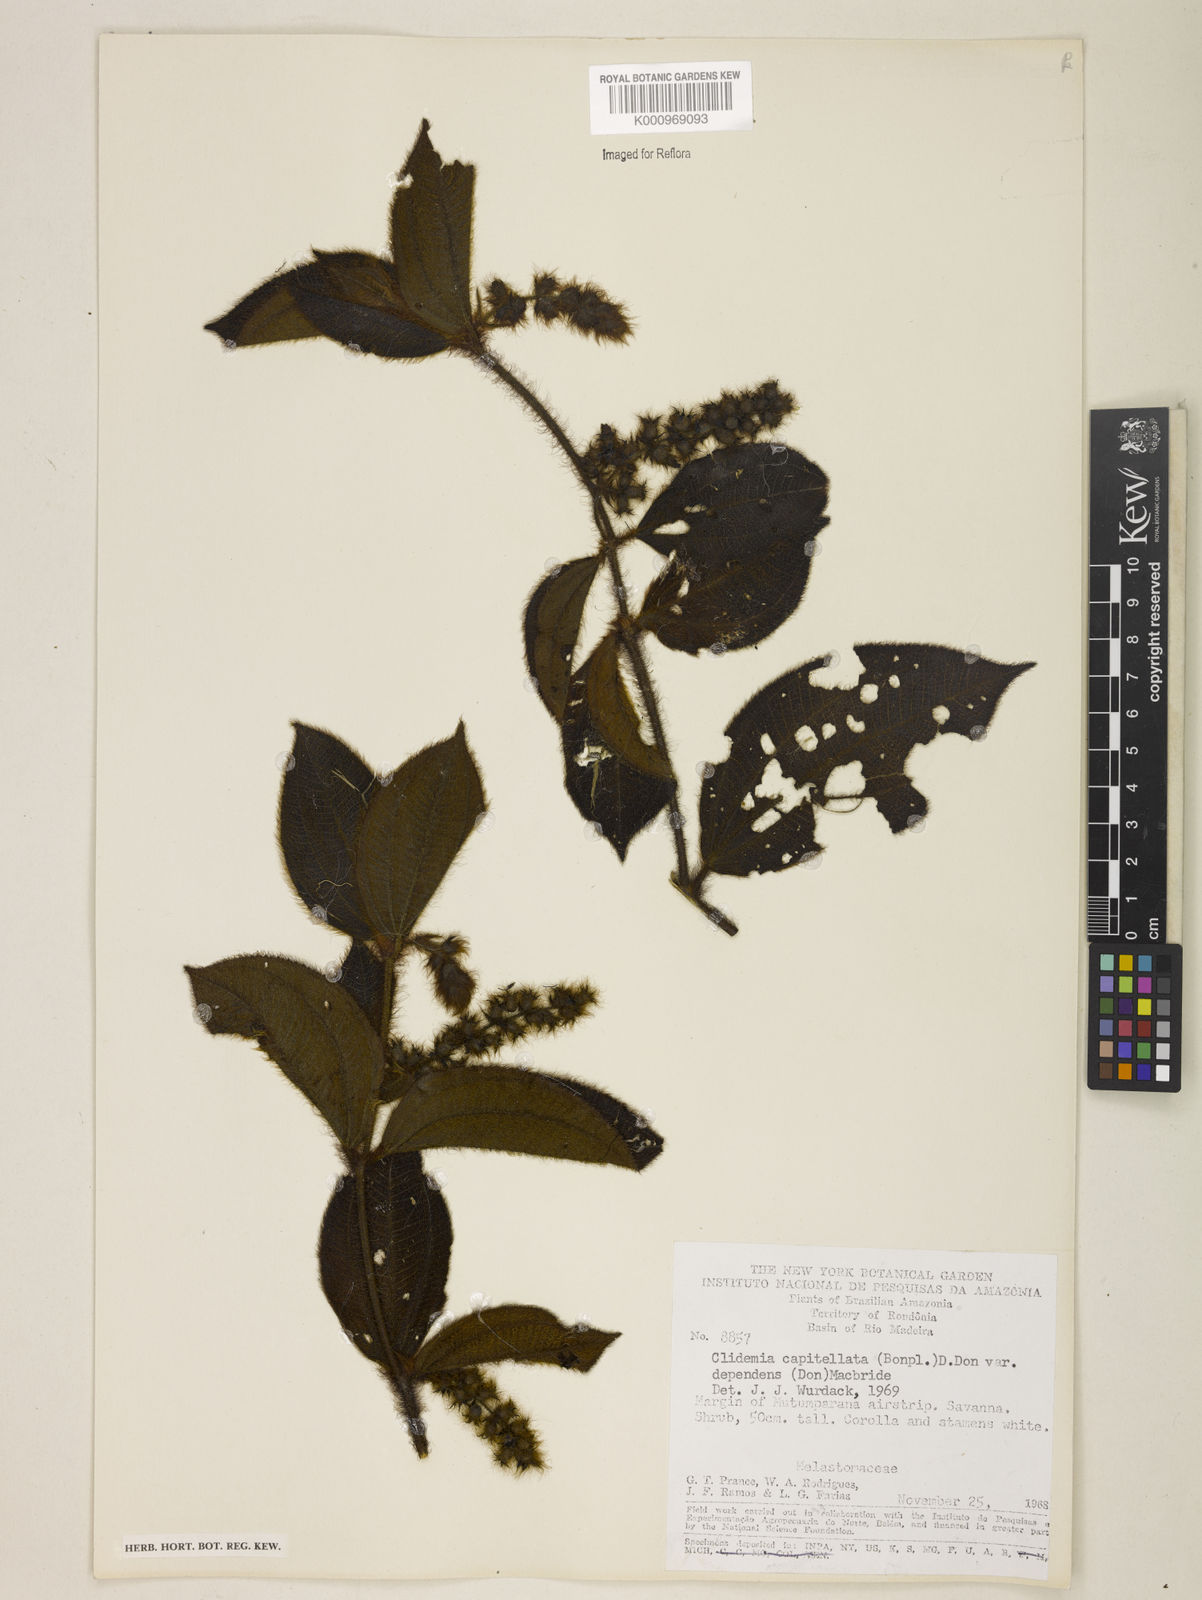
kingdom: Plantae
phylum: Tracheophyta
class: Magnoliopsida
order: Myrtales
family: Melastomataceae
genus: Miconia
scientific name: Miconia dependens
